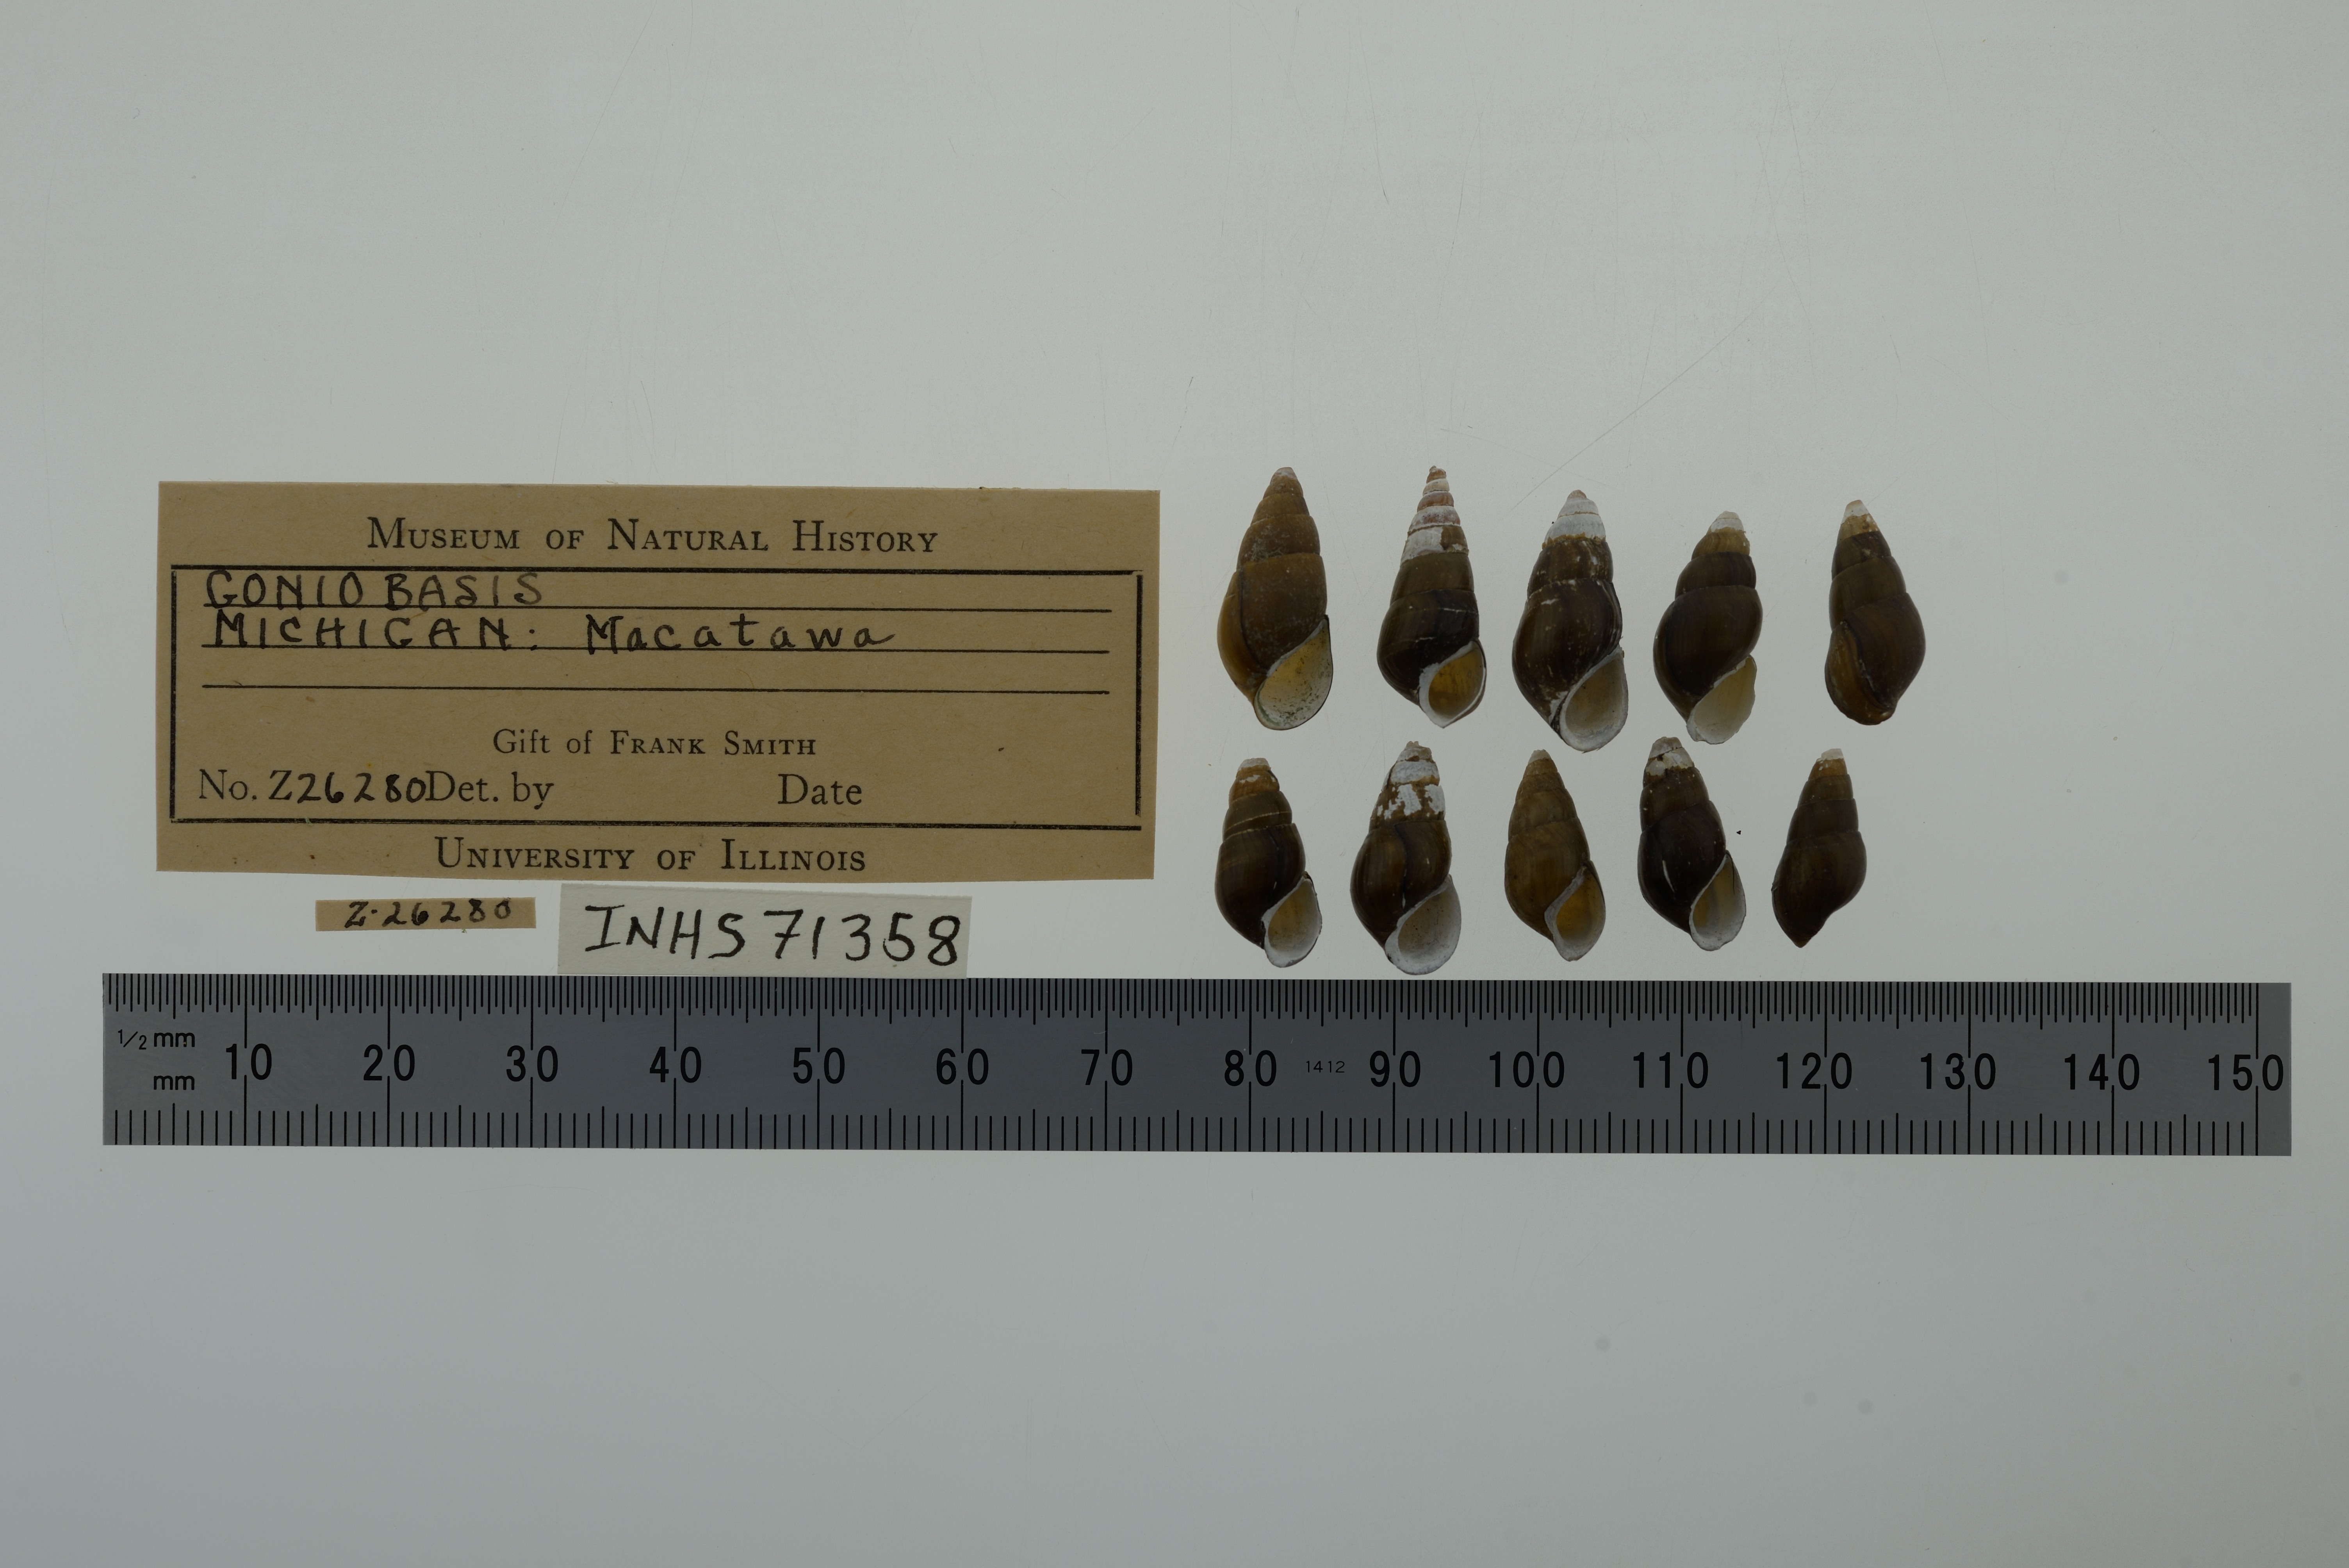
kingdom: Animalia
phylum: Mollusca
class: Gastropoda
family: Pleuroceridae
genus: Elimia
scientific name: Elimia
